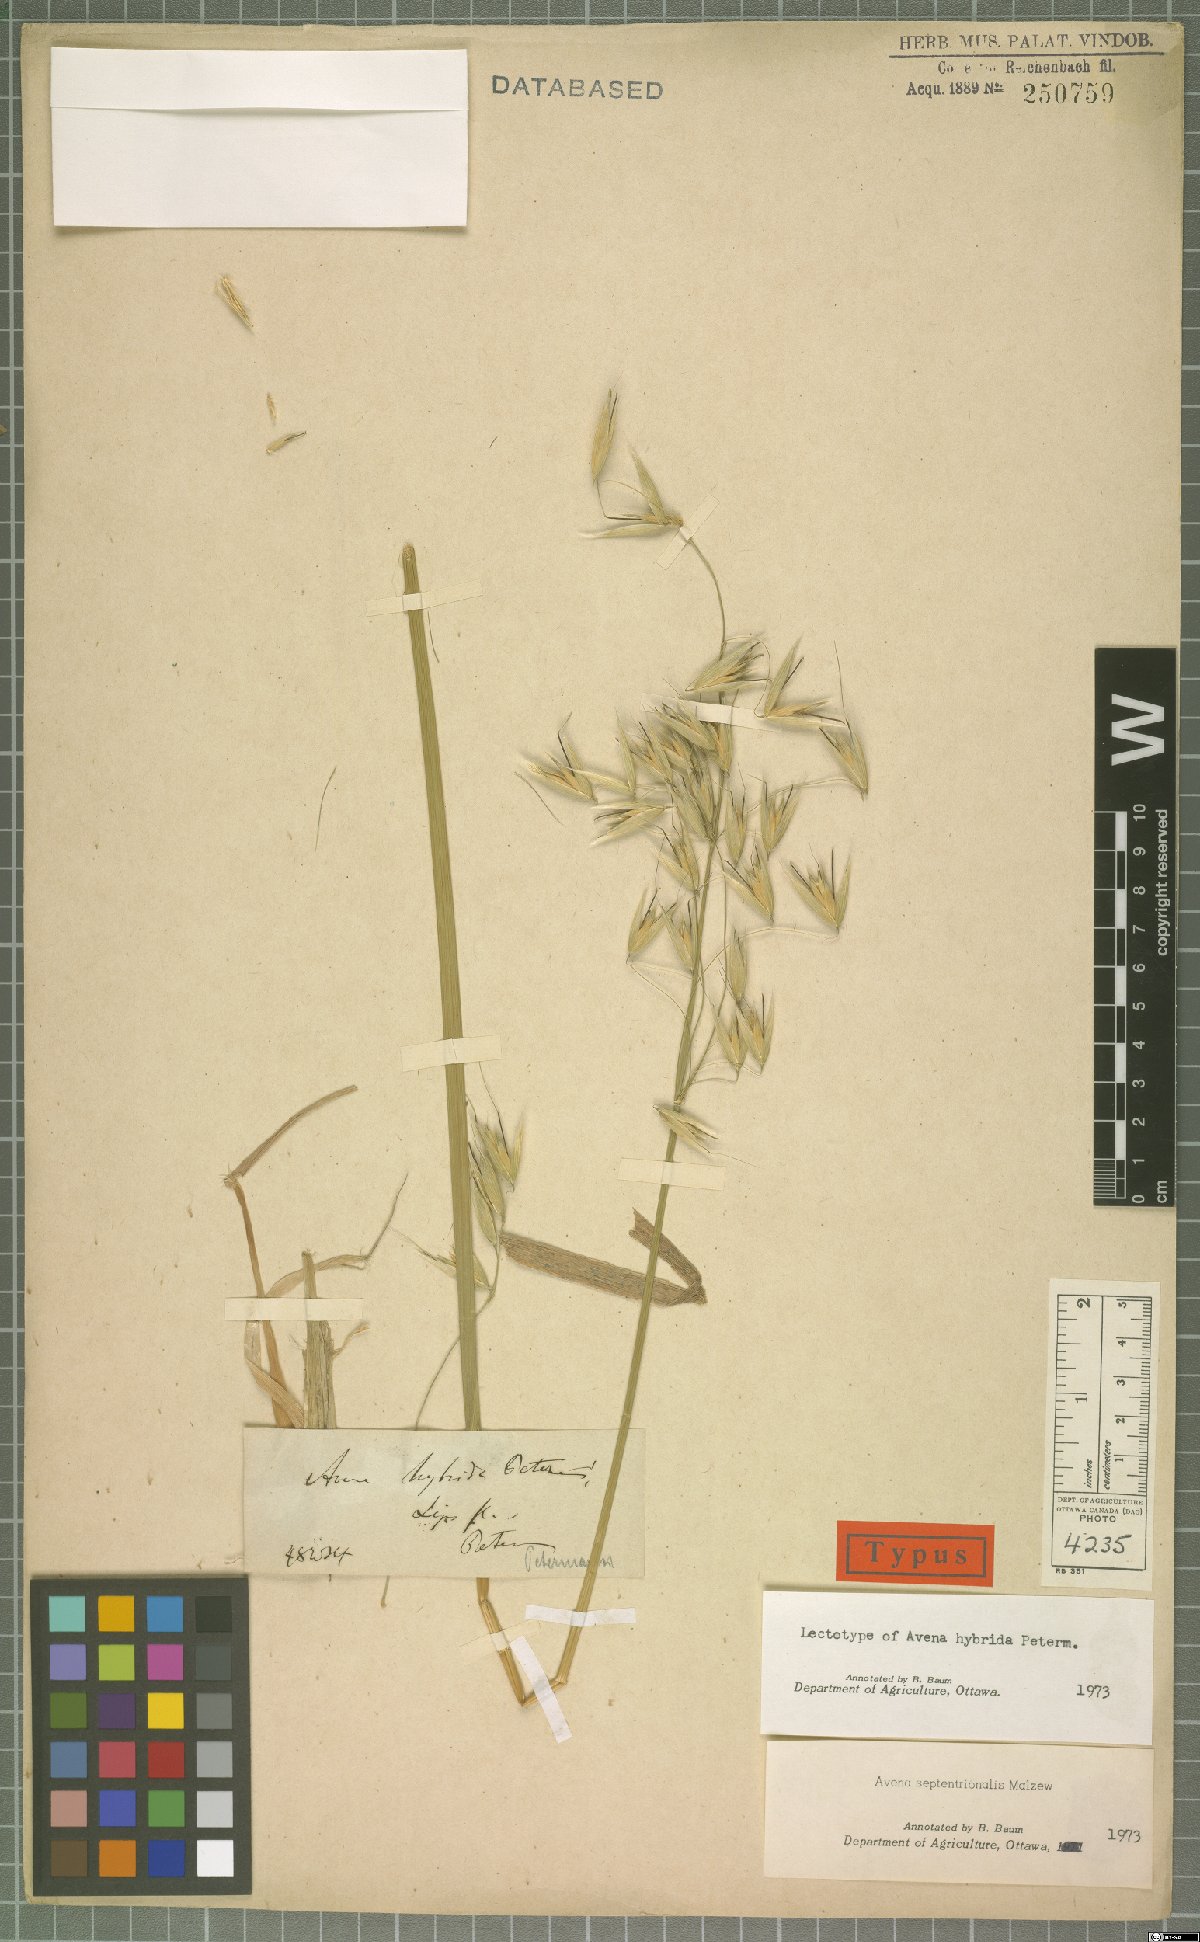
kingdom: Plantae
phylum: Tracheophyta
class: Liliopsida
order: Poales
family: Poaceae
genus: Avena
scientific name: Avena hybrida
